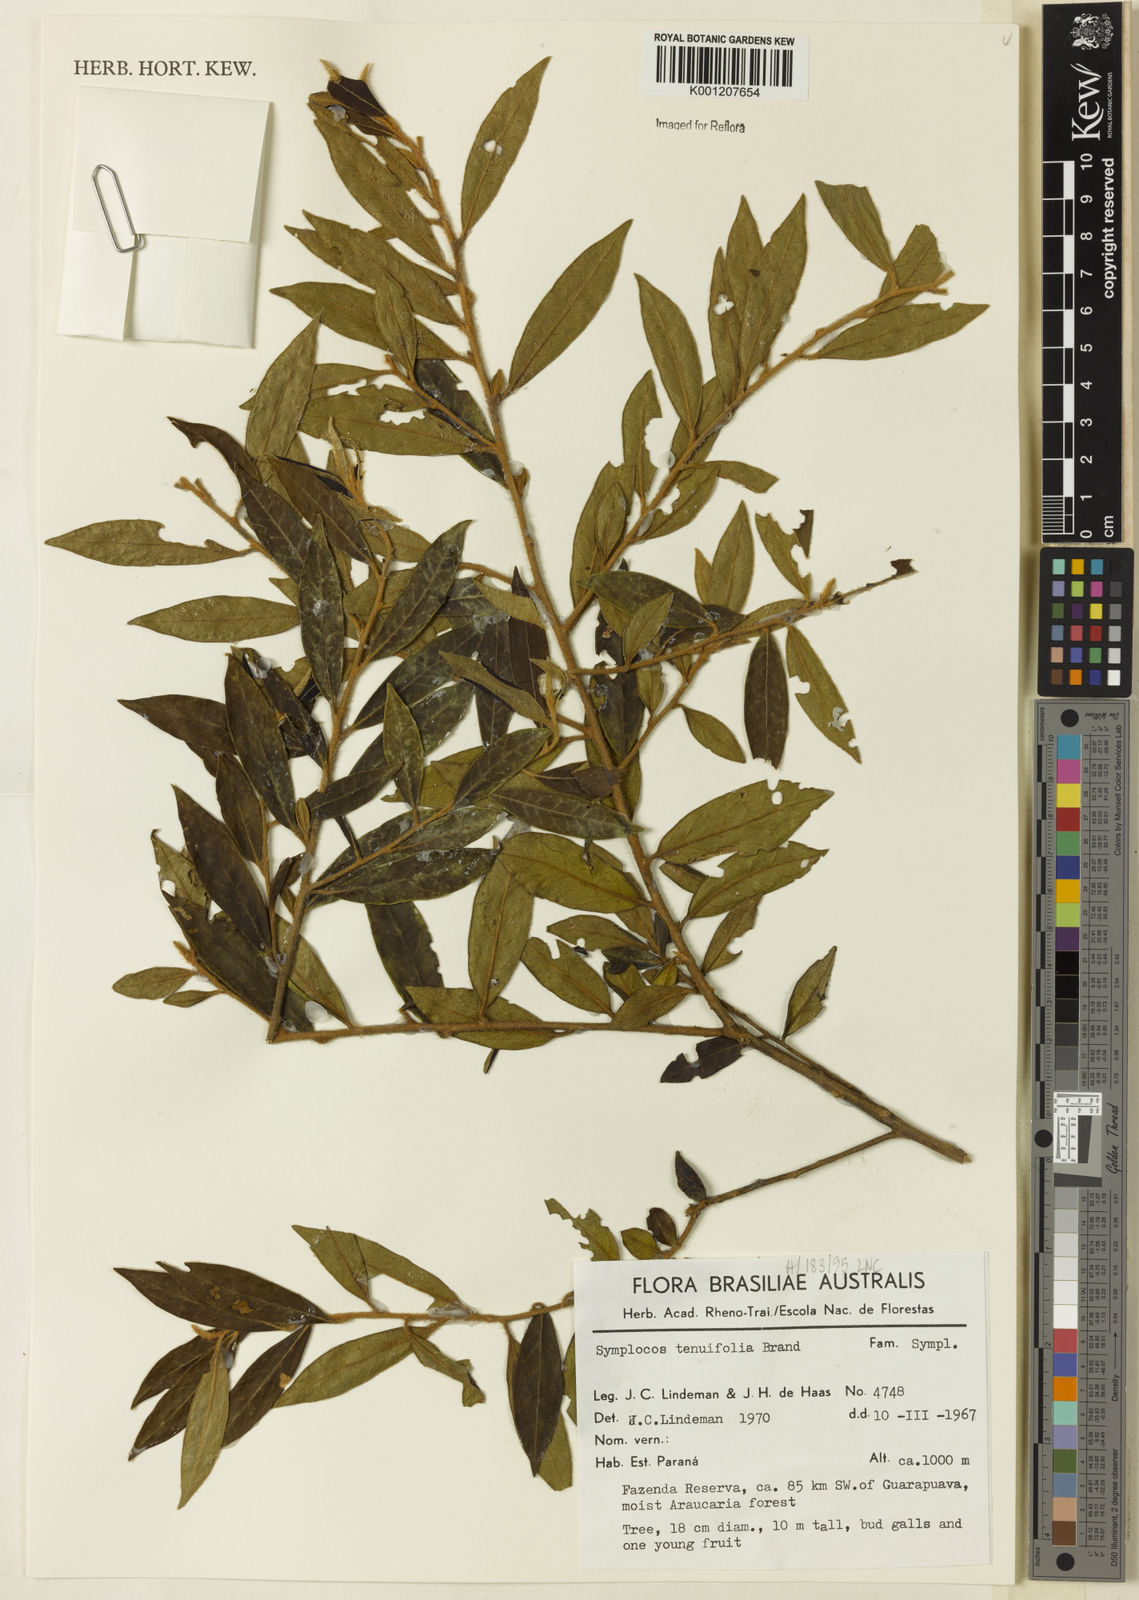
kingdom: Plantae
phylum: Tracheophyta
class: Magnoliopsida
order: Ericales
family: Symplocaceae
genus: Symplocos
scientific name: Symplocos tenuifolia
